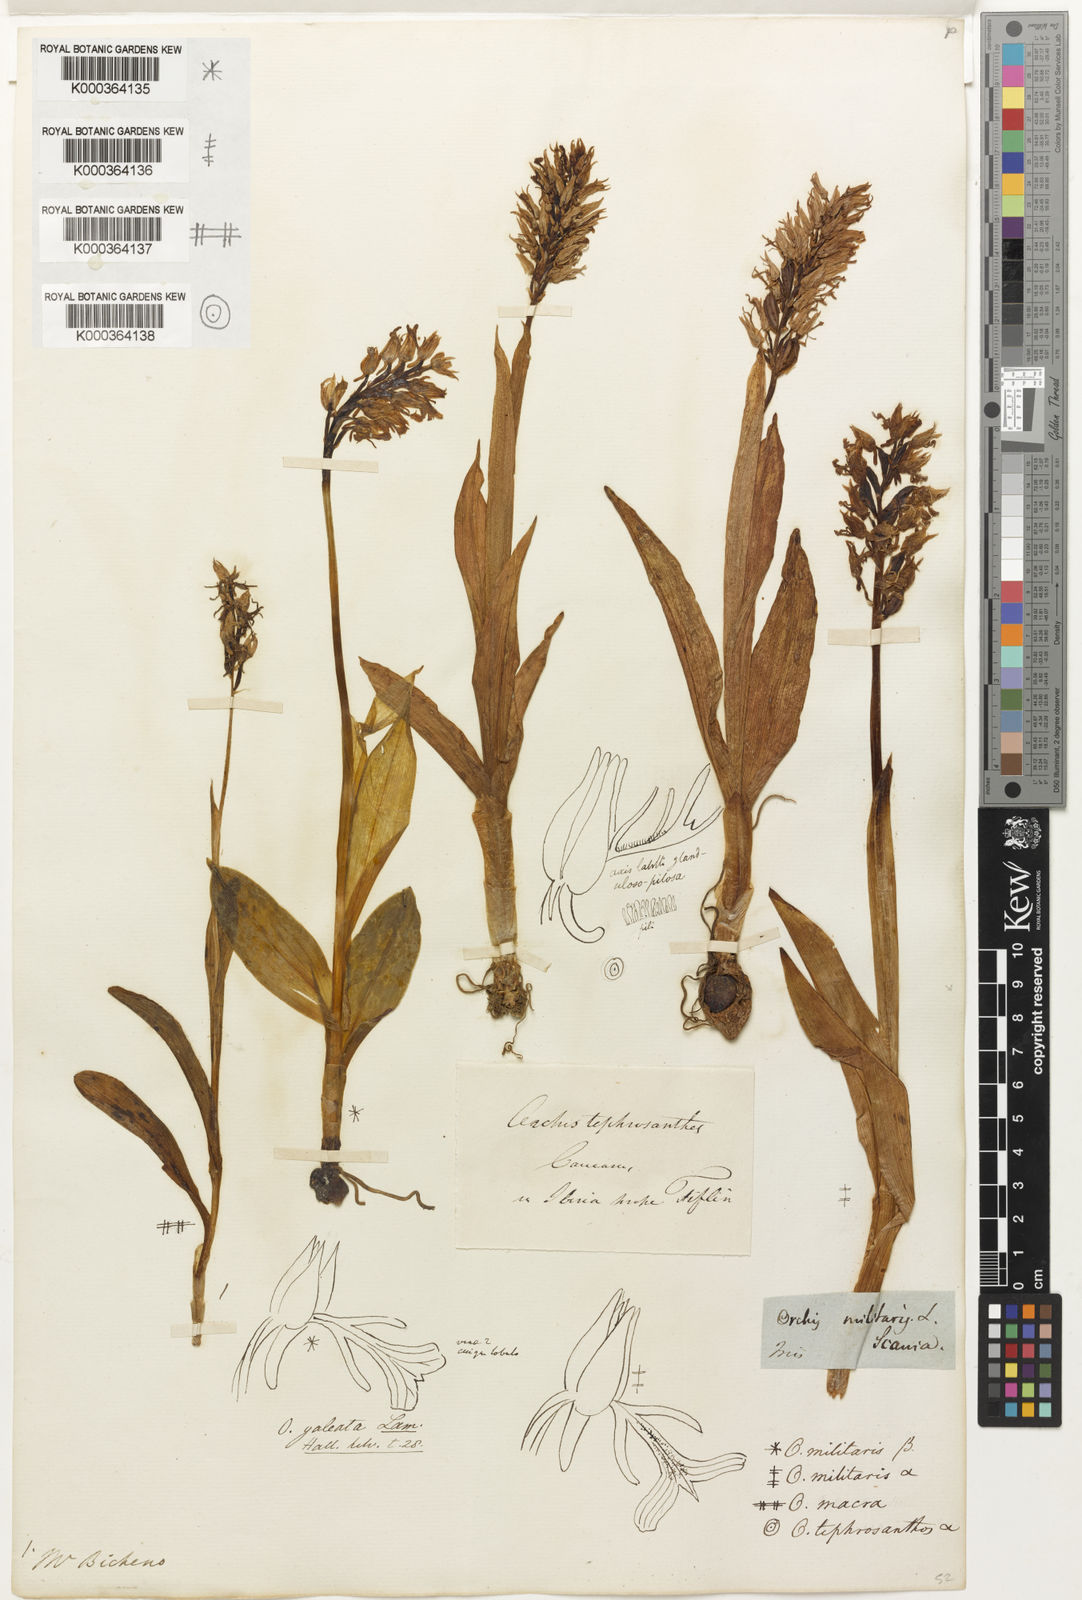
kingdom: Plantae
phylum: Tracheophyta
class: Liliopsida
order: Asparagales
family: Orchidaceae
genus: Orchis
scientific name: Orchis militaris
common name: Military orchid
